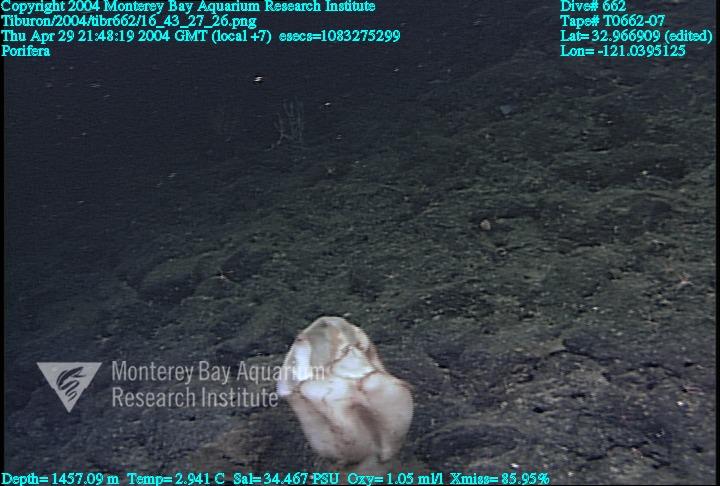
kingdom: Animalia
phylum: Porifera
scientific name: Porifera
